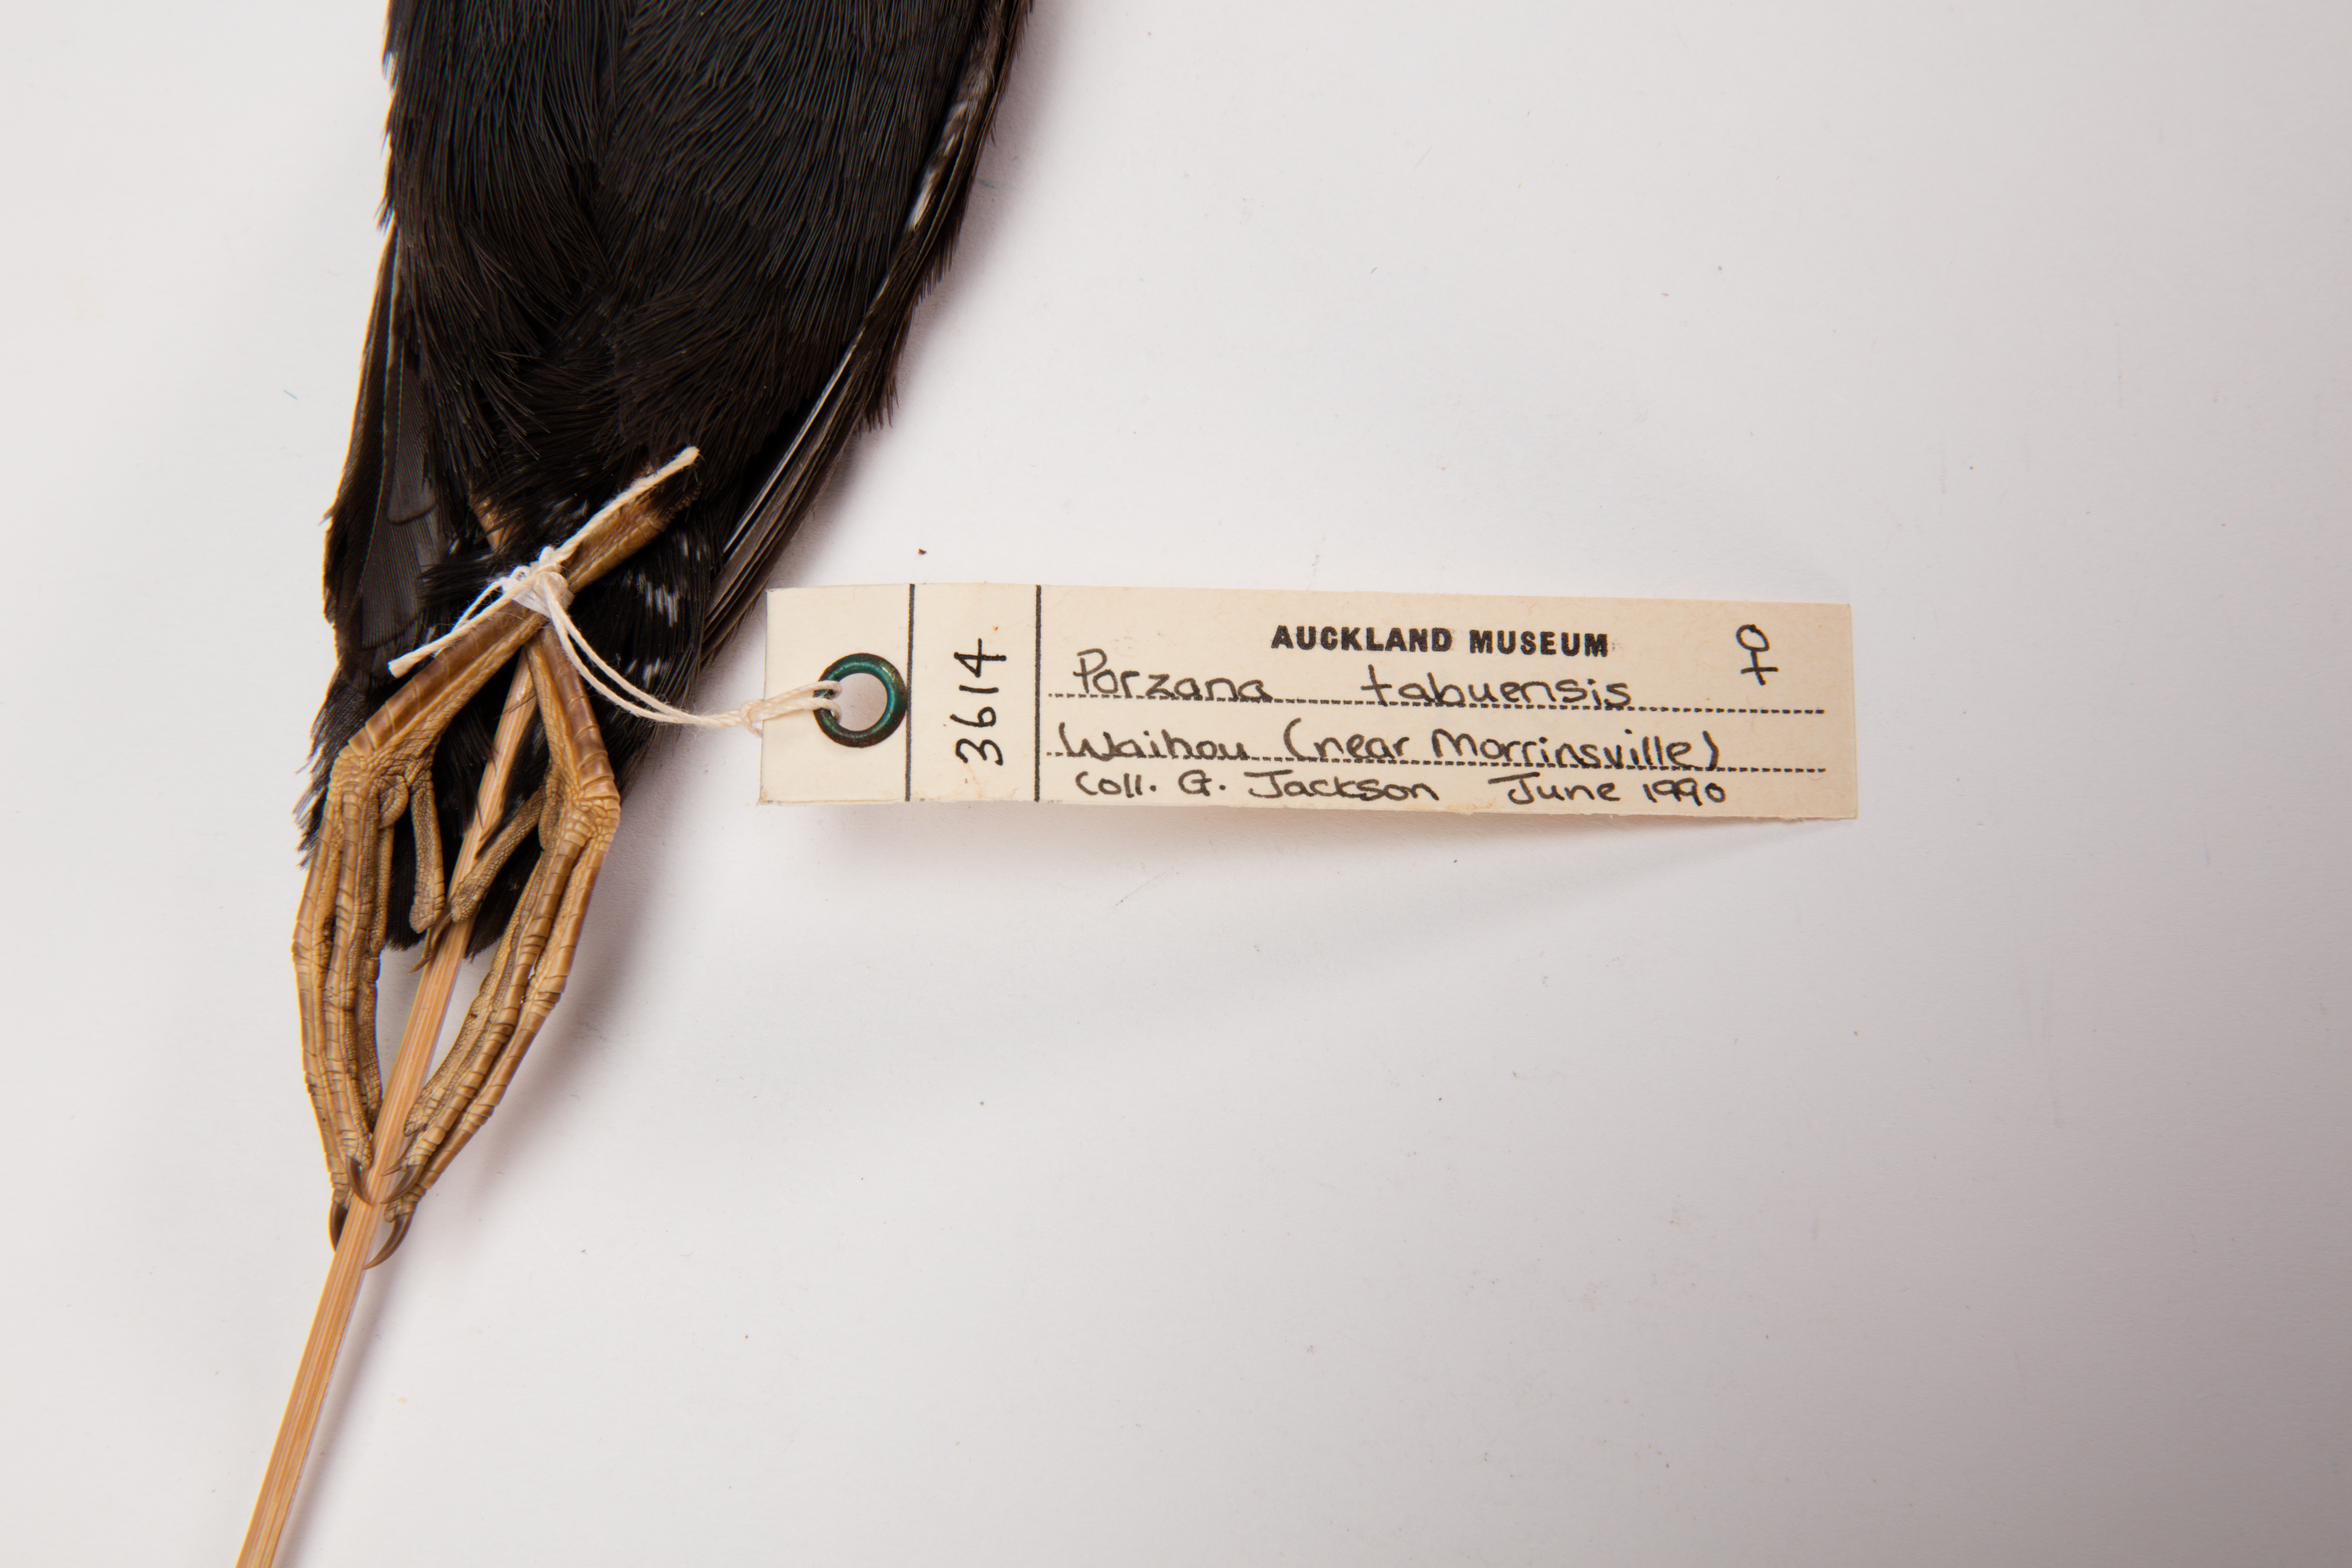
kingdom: Animalia
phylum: Chordata
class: Aves
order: Gruiformes
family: Rallidae
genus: Porzana
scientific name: Porzana tabuensis
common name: Spotless crake
